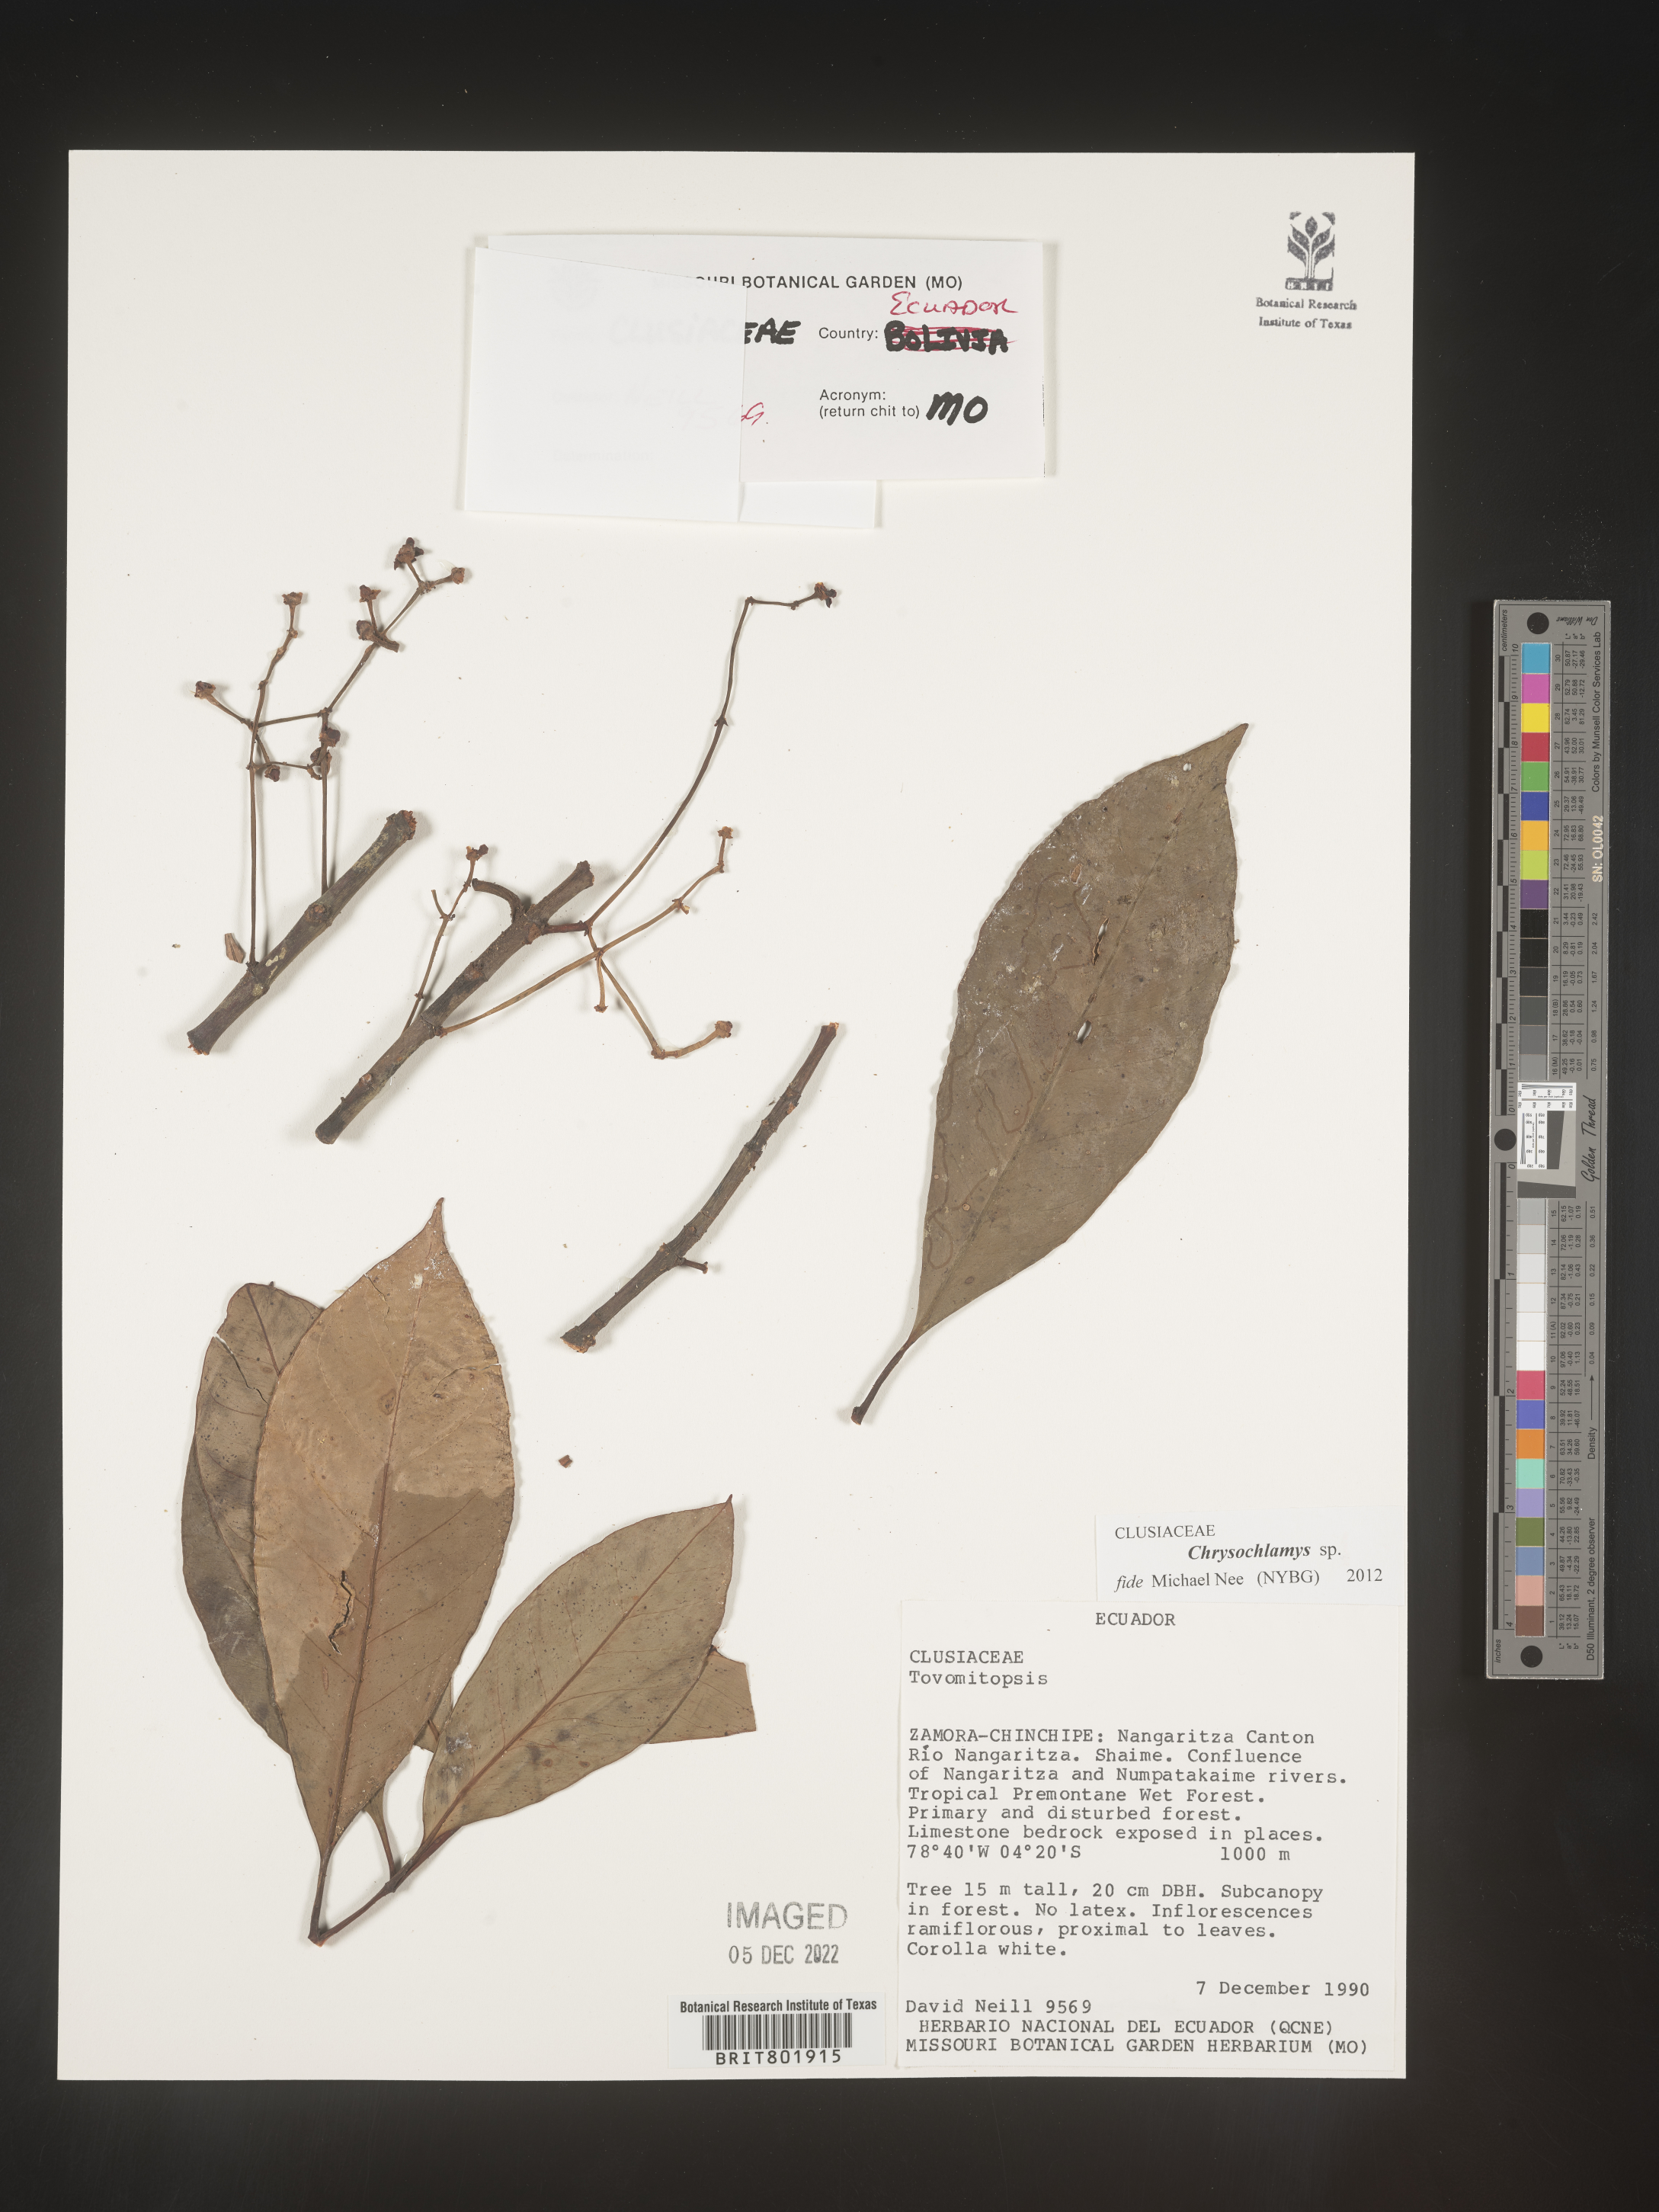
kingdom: Plantae
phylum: Tracheophyta
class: Magnoliopsida
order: Malpighiales
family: Clusiaceae
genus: Chrysochlamys
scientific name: Chrysochlamys
